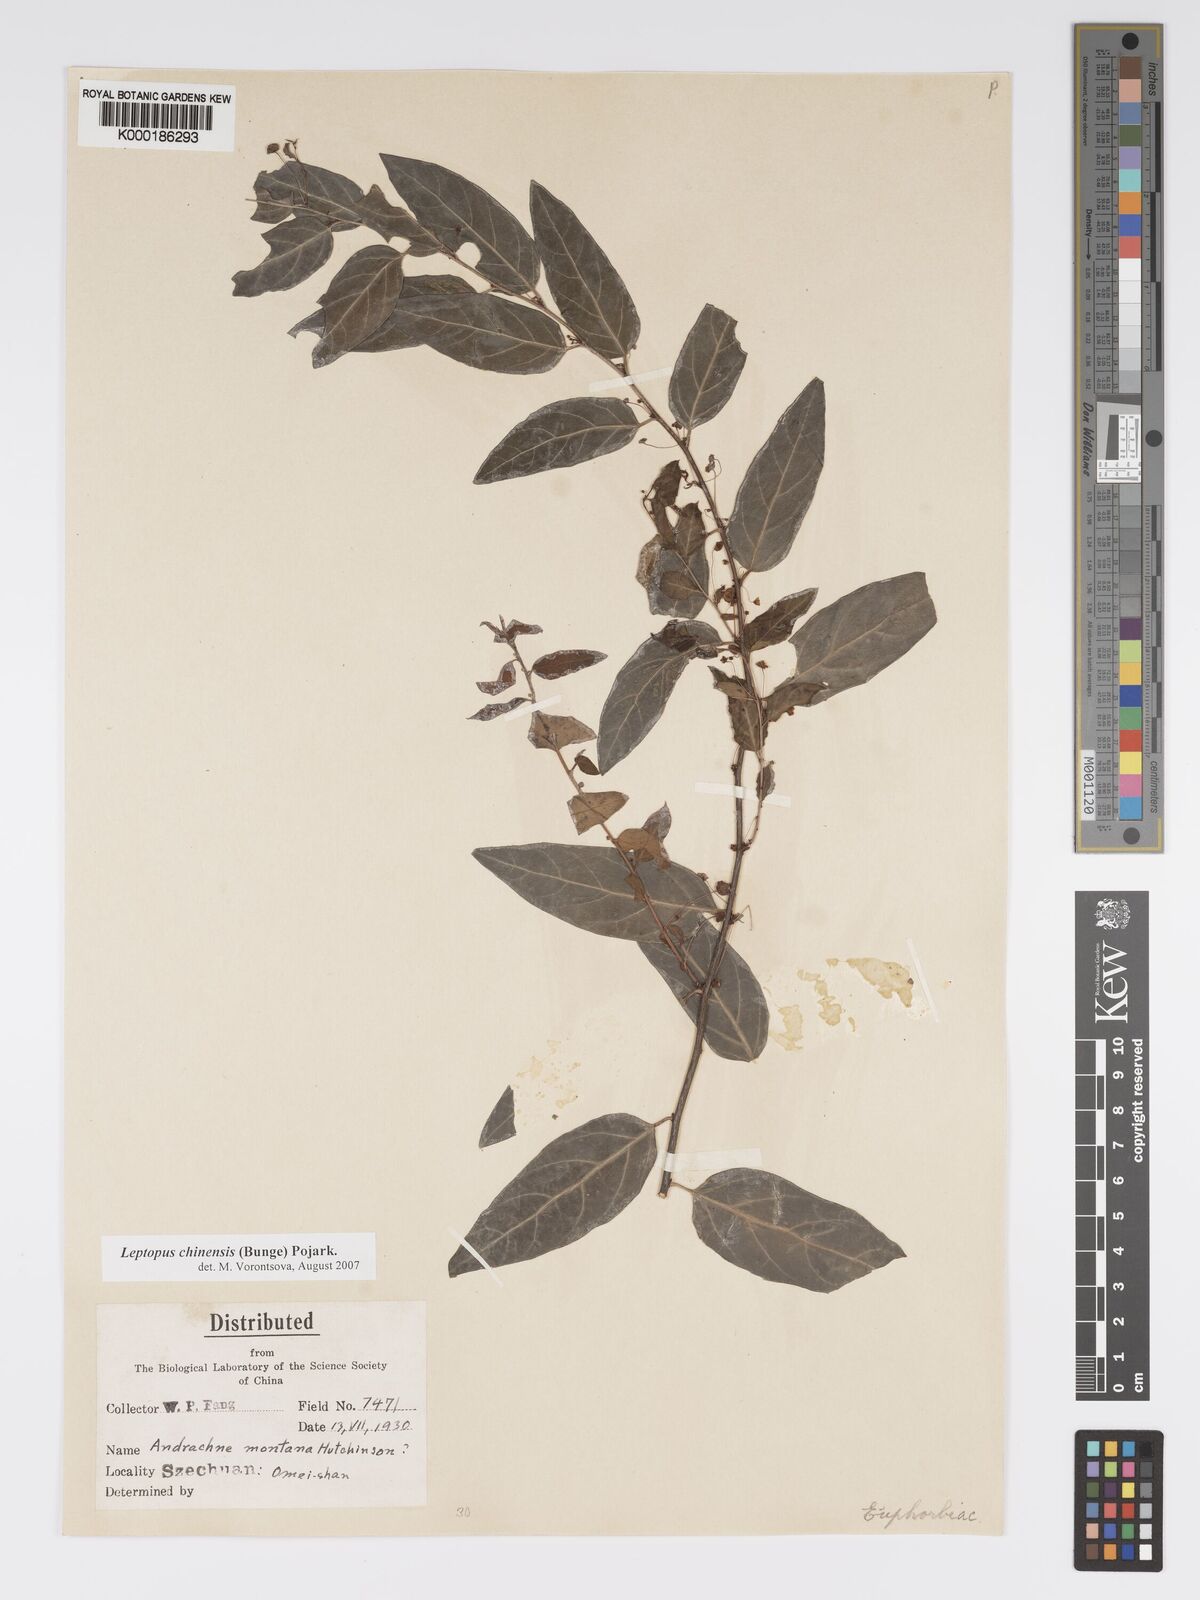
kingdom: Plantae
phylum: Tracheophyta
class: Magnoliopsida
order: Malpighiales
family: Phyllanthaceae
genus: Leptopus
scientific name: Leptopus chinensis
